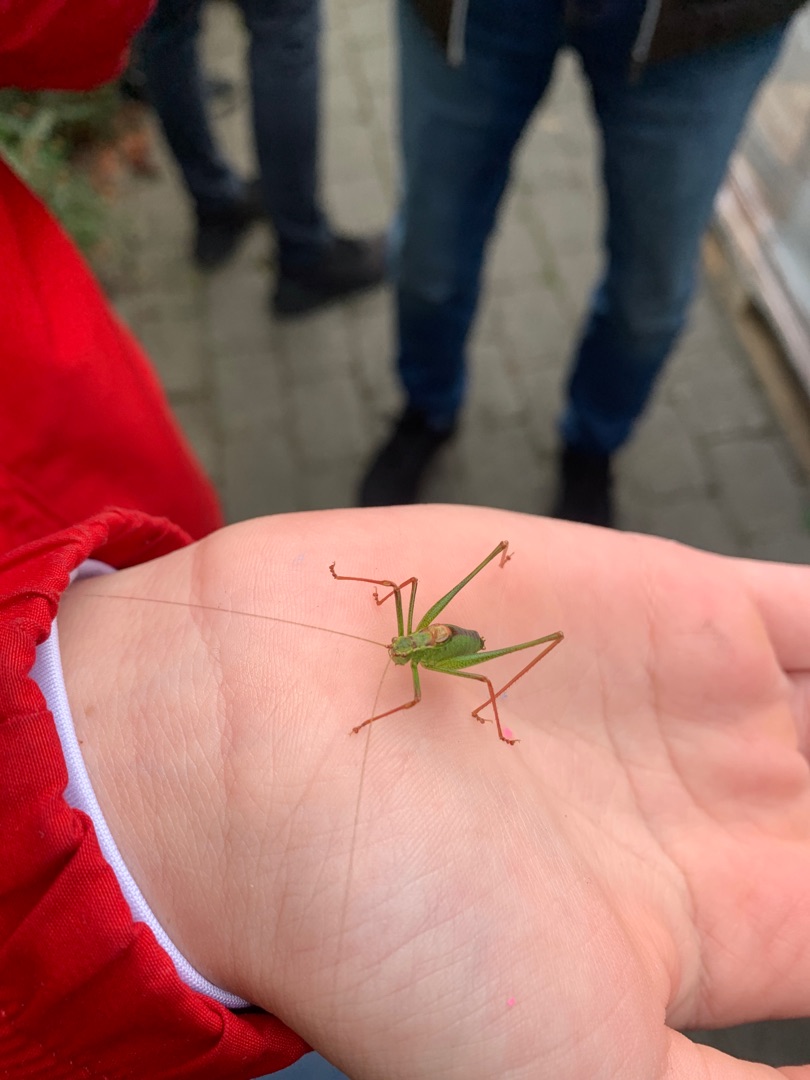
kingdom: Animalia
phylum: Arthropoda
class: Insecta
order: Orthoptera
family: Tettigoniidae
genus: Leptophyes
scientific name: Leptophyes punctatissima
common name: Krumknivgræshoppe
